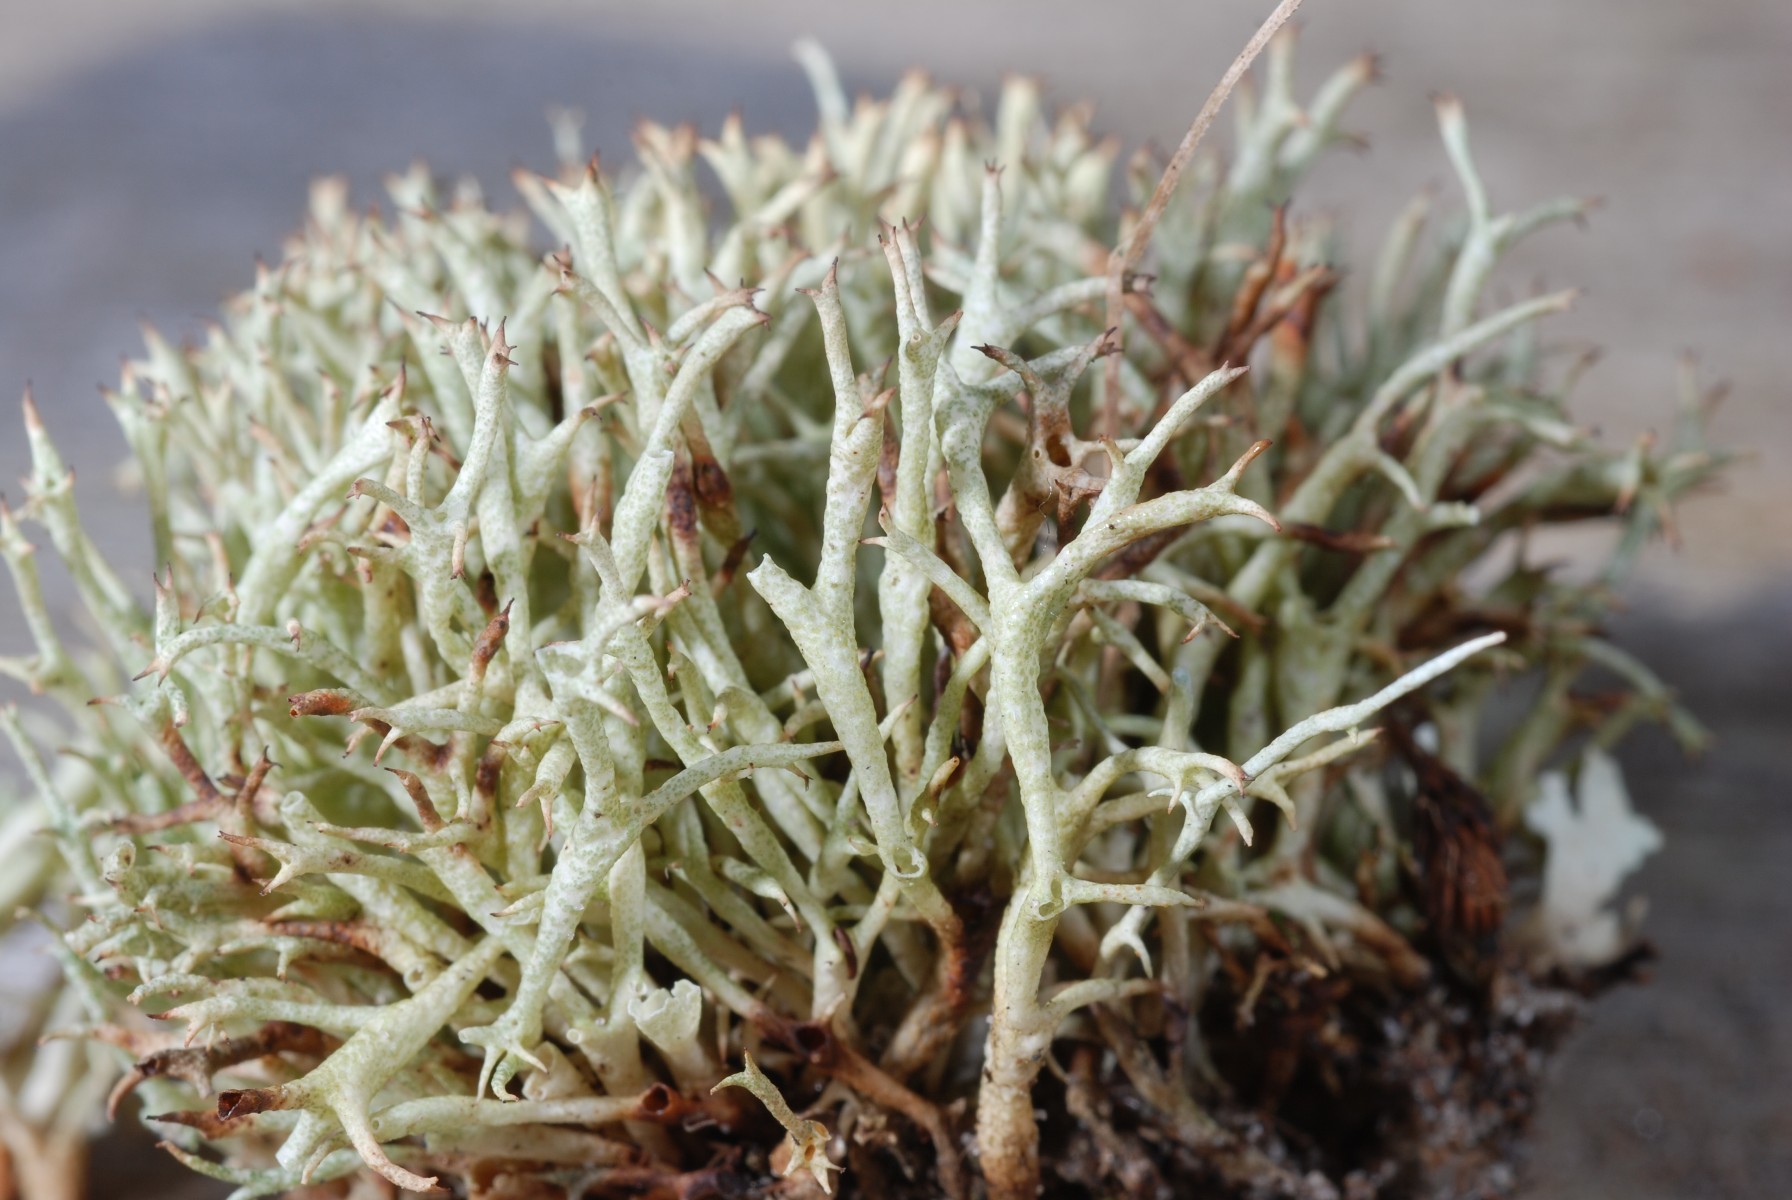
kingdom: Fungi
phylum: Ascomycota
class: Lecanoromycetes
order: Lecanorales
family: Cladoniaceae
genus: Cladonia
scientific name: Cladonia uncialis
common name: pigget bægerlav
